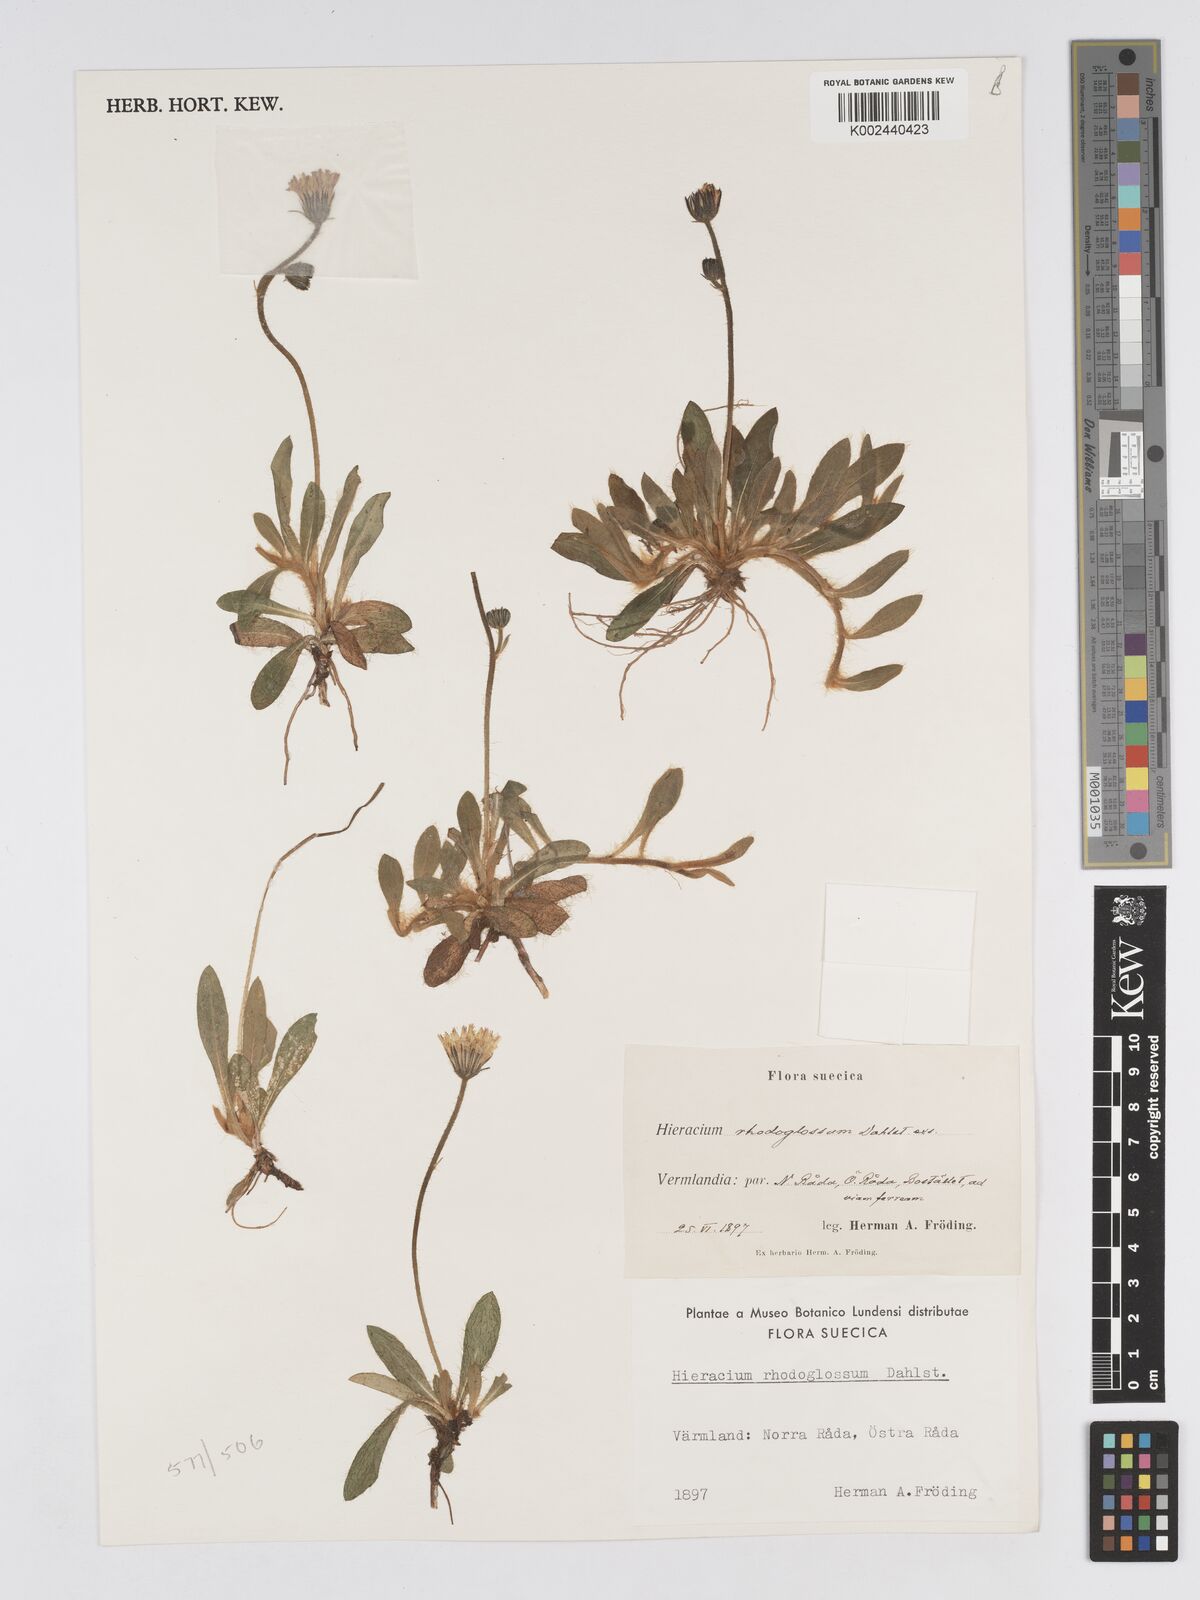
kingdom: Plantae
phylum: Tracheophyta
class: Magnoliopsida
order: Asterales
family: Asteraceae
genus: Pilosella
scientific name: Pilosella officinarum
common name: Mouse-ear hawkweed
